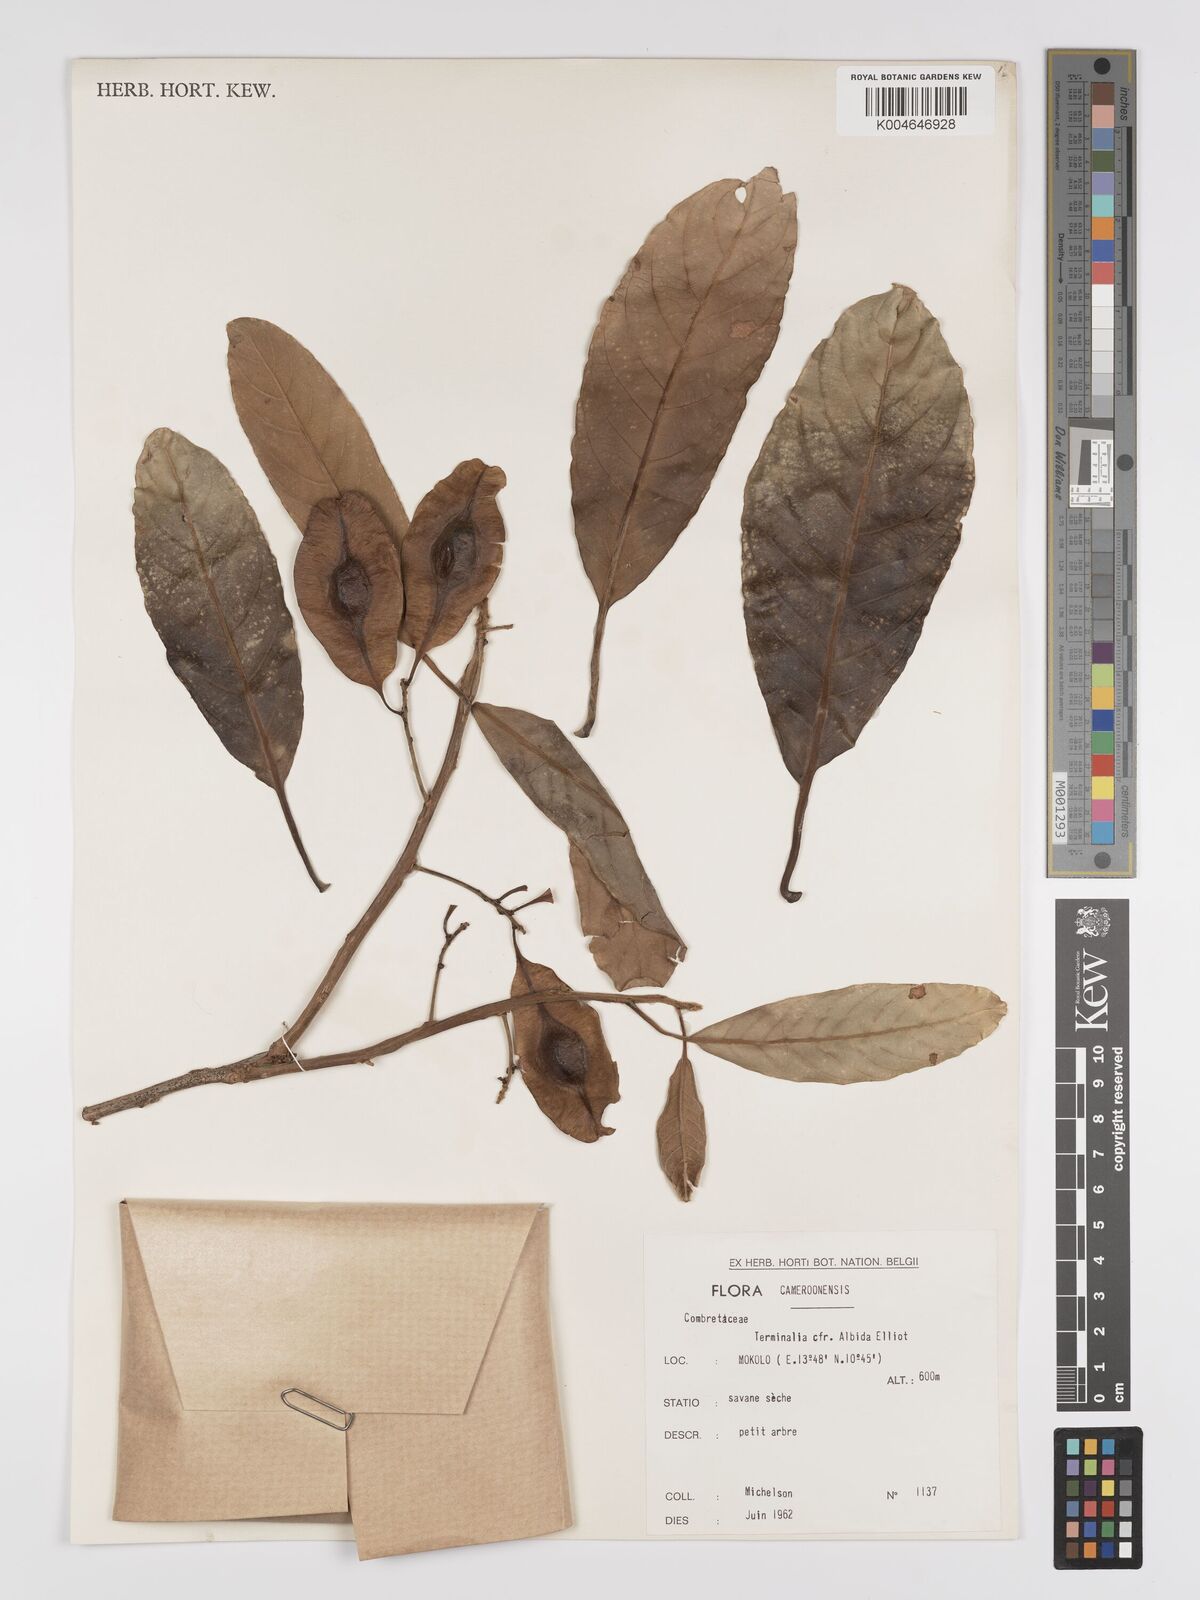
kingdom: Plantae
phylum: Tracheophyta
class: Magnoliopsida
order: Myrtales
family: Combretaceae
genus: Terminalia
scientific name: Terminalia albida
